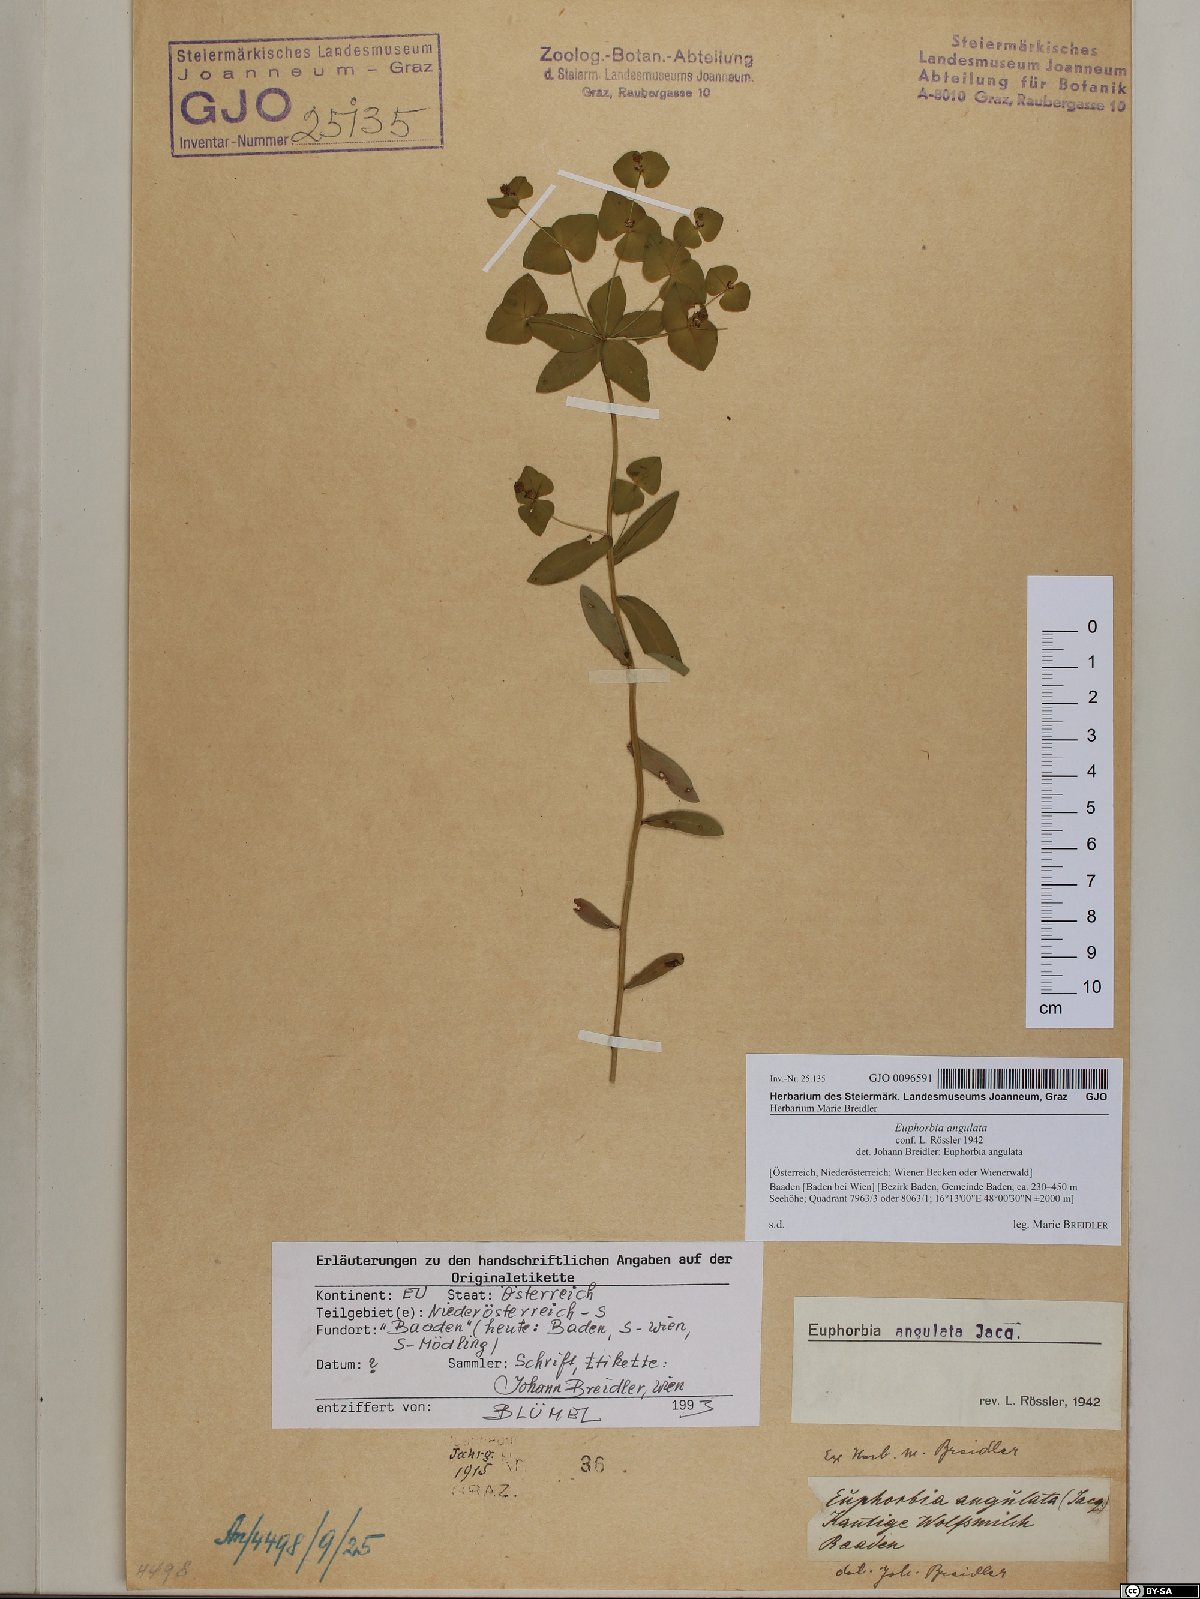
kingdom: Plantae
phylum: Tracheophyta
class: Magnoliopsida
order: Malpighiales
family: Euphorbiaceae
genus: Euphorbia
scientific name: Euphorbia angulata
